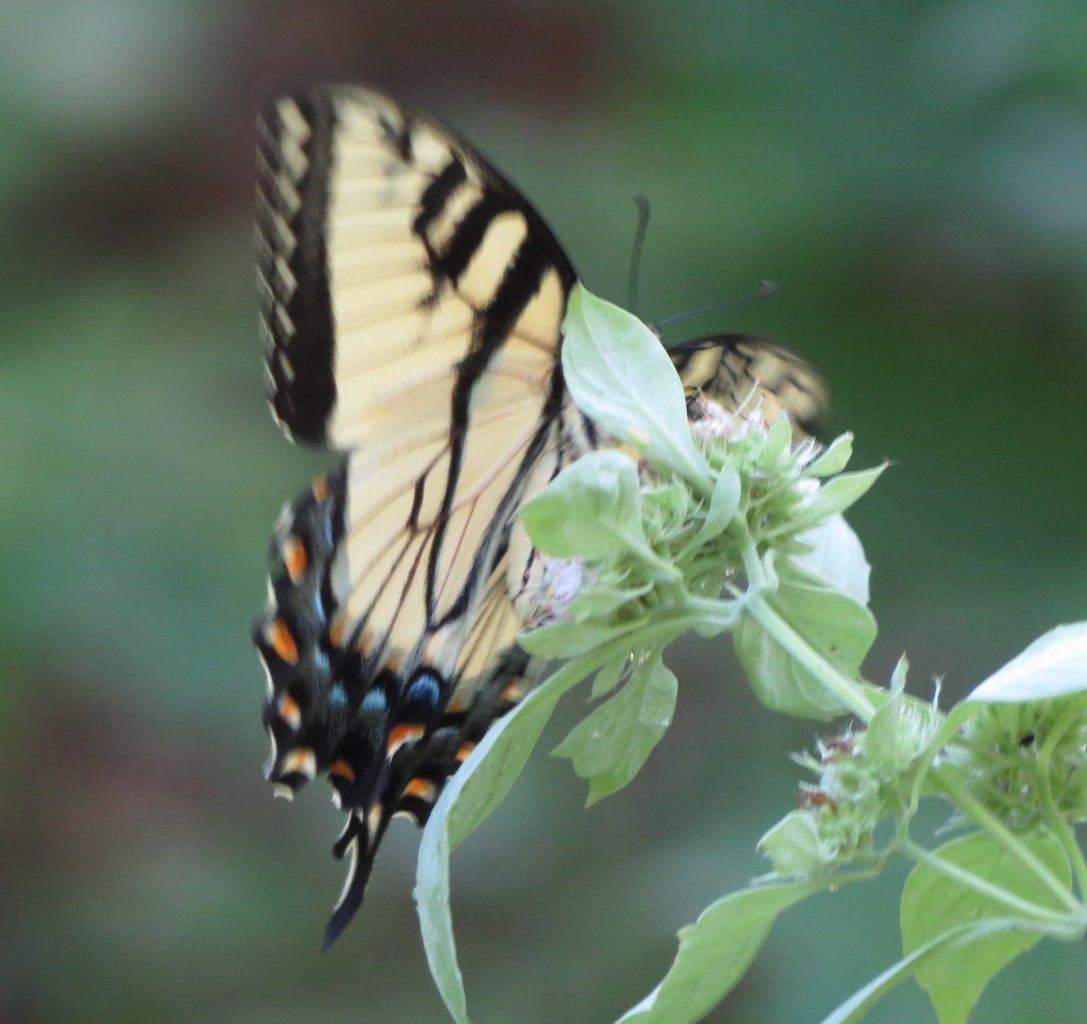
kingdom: Animalia
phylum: Arthropoda
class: Insecta
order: Lepidoptera
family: Papilionidae
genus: Pterourus
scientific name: Pterourus glaucus
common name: Eastern Tiger Swallowtail
